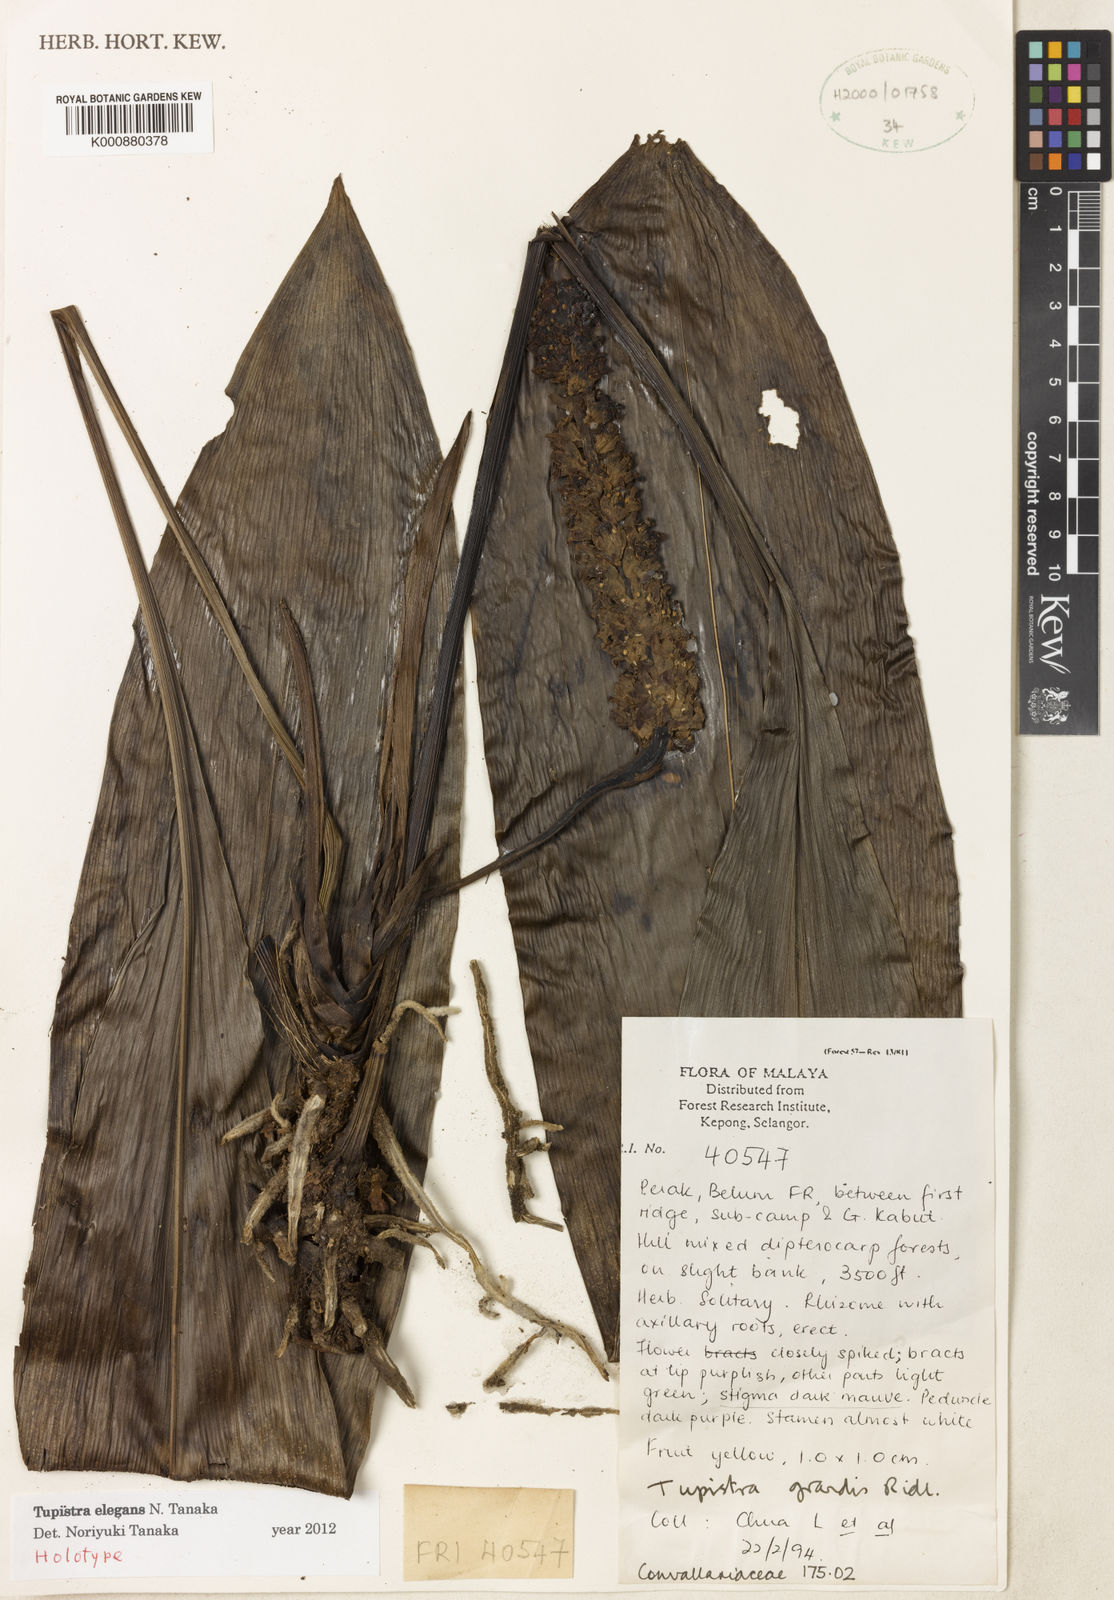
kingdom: Plantae
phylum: Tracheophyta
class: Liliopsida
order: Asparagales
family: Asparagaceae
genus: Tupistra
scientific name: Tupistra elegans
